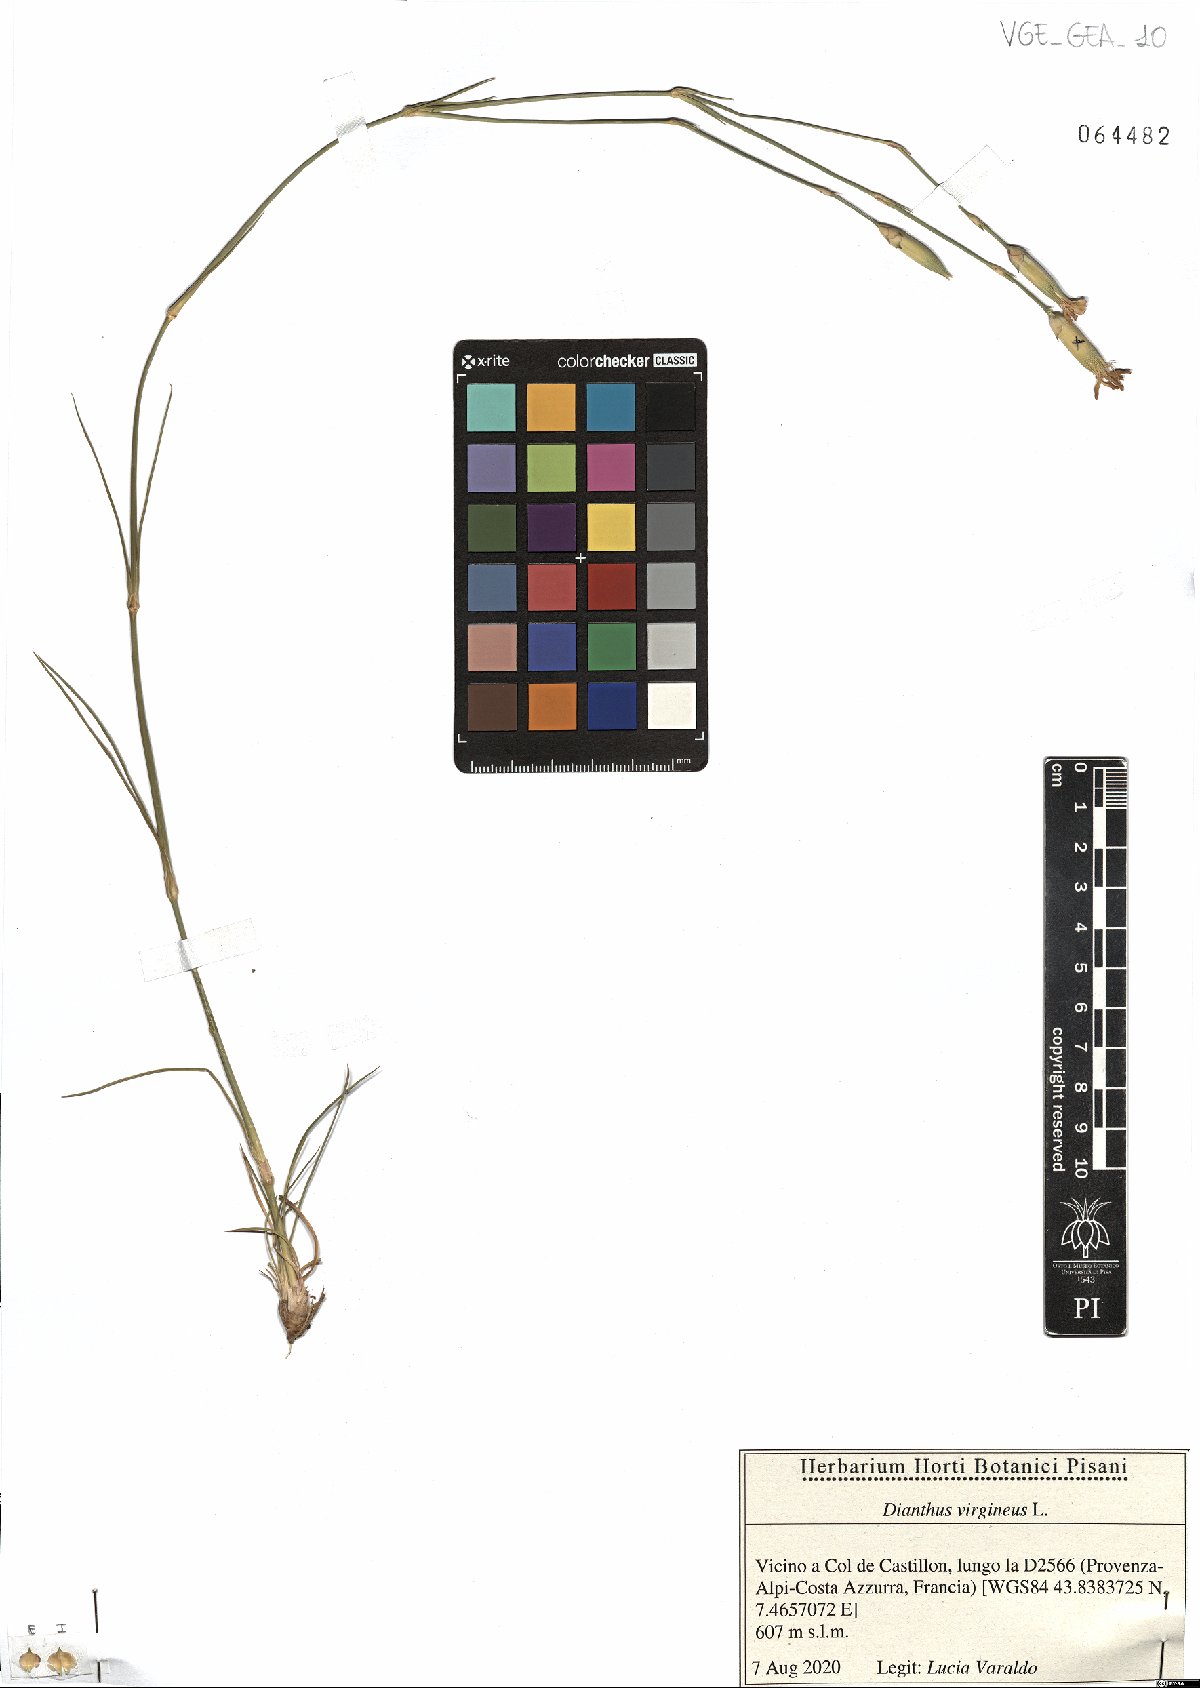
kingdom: Plantae
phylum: Tracheophyta
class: Magnoliopsida
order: Caryophyllales
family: Caryophyllaceae
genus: Dianthus
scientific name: Dianthus virgineus
